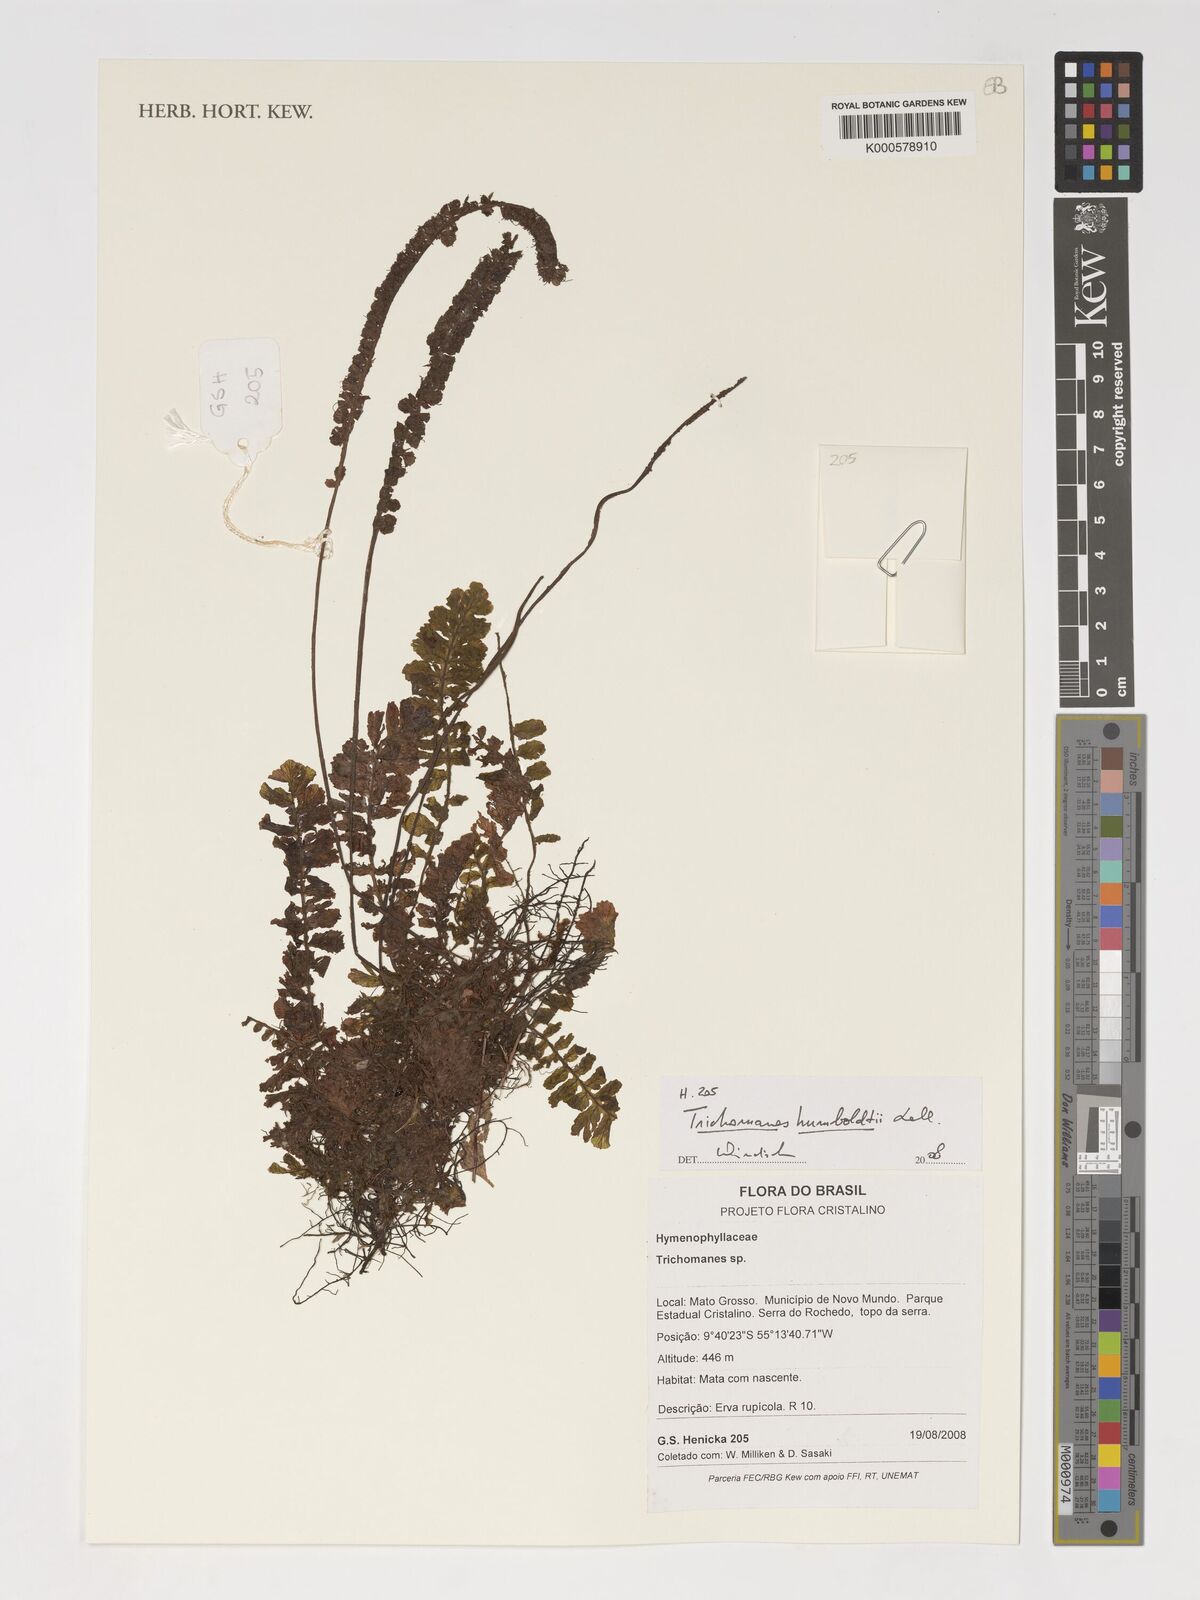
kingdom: Plantae
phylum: Tracheophyta
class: Polypodiopsida
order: Hymenophyllales
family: Hymenophyllaceae
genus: Trichomanes
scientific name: Trichomanes humboldtii
